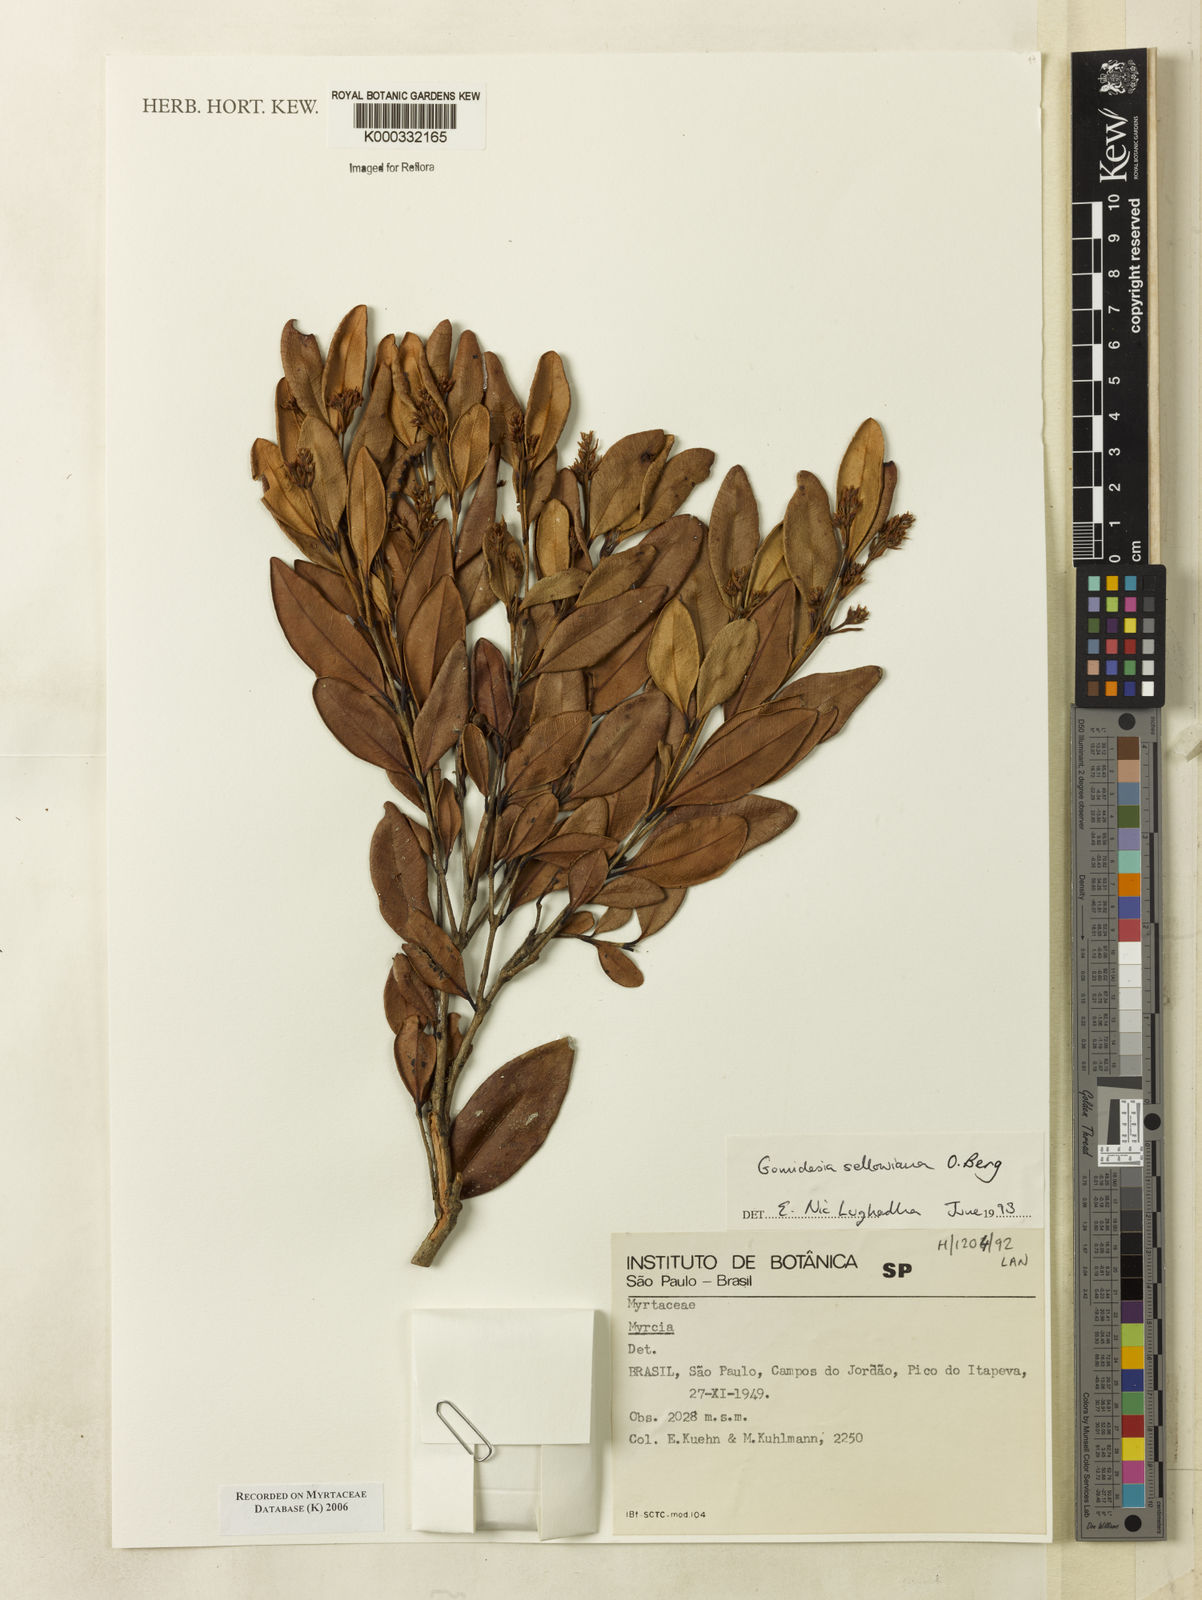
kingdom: Plantae
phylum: Tracheophyta
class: Magnoliopsida
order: Myrtales
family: Myrtaceae
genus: Myrcia
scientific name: Myrcia hartwegiana
